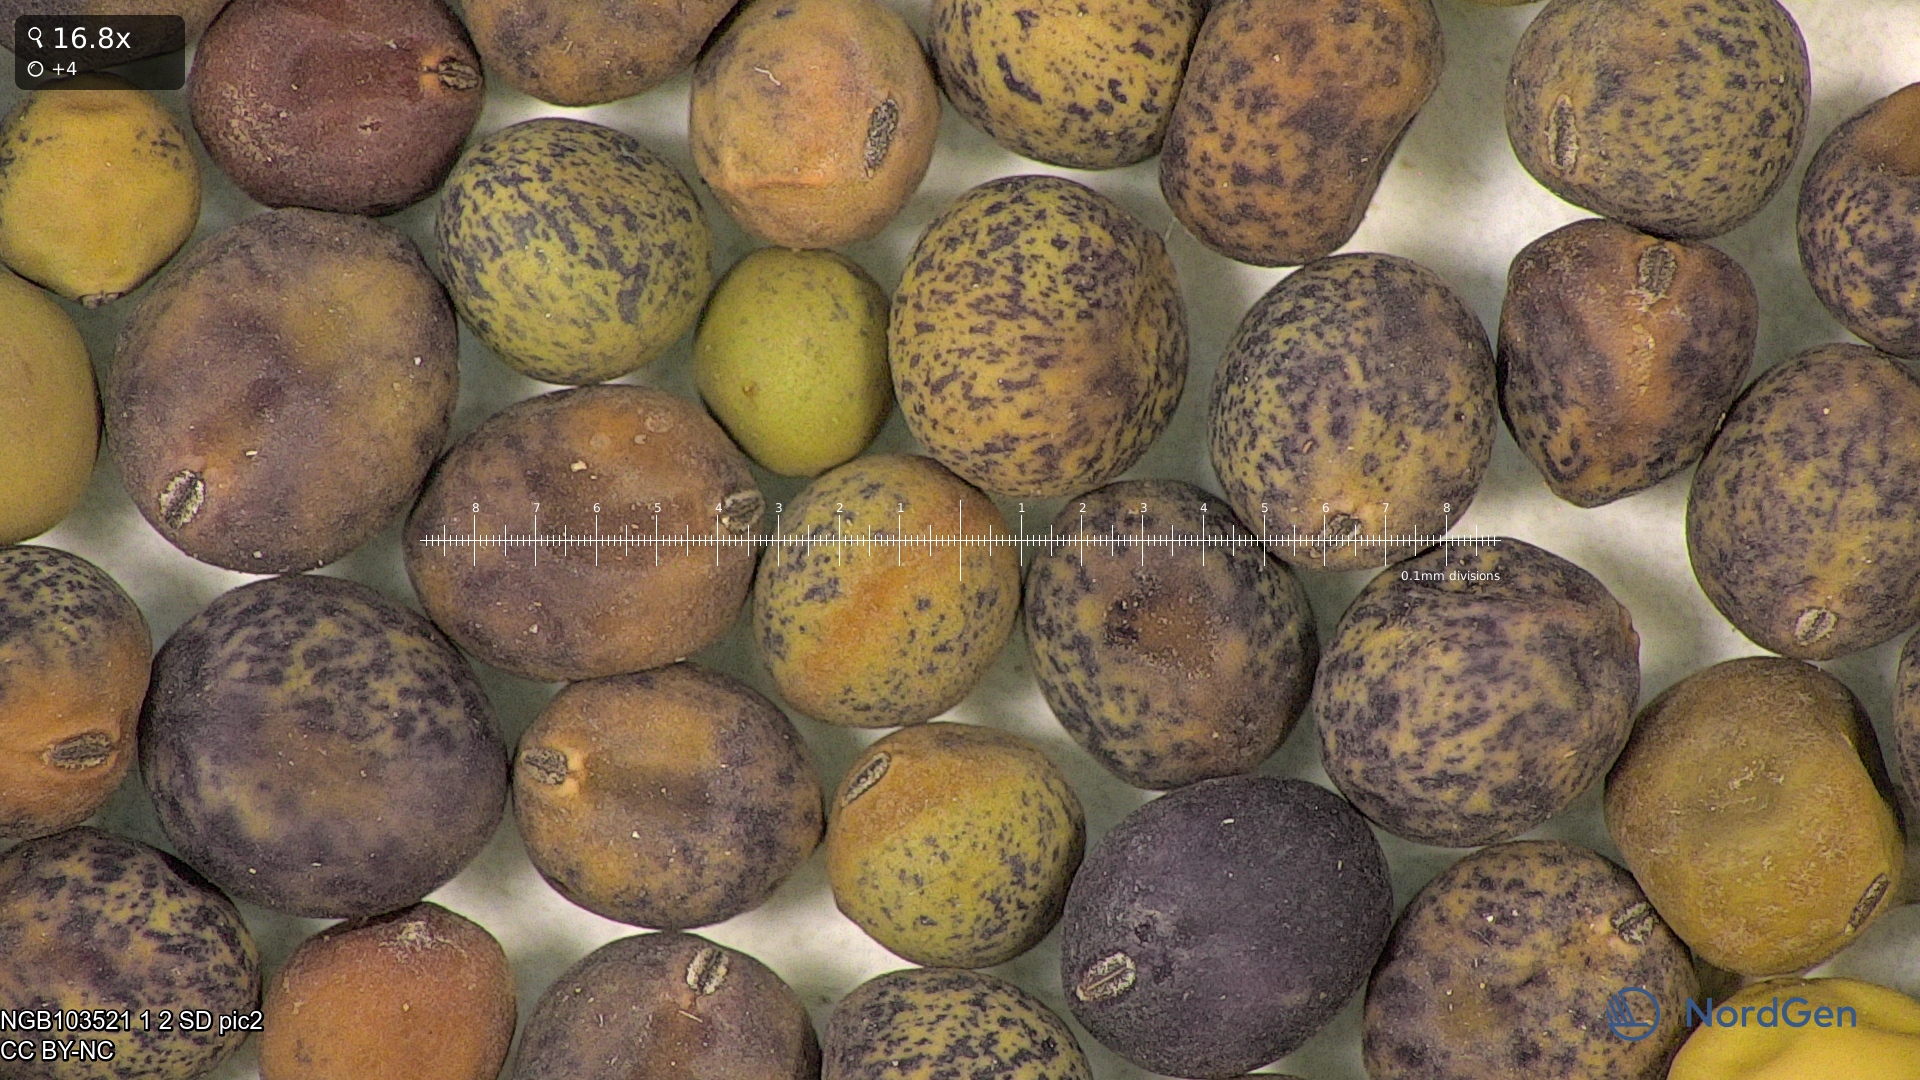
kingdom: Plantae
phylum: Tracheophyta
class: Magnoliopsida
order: Fabales
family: Fabaceae
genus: Lathyrus
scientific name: Lathyrus oleraceus
